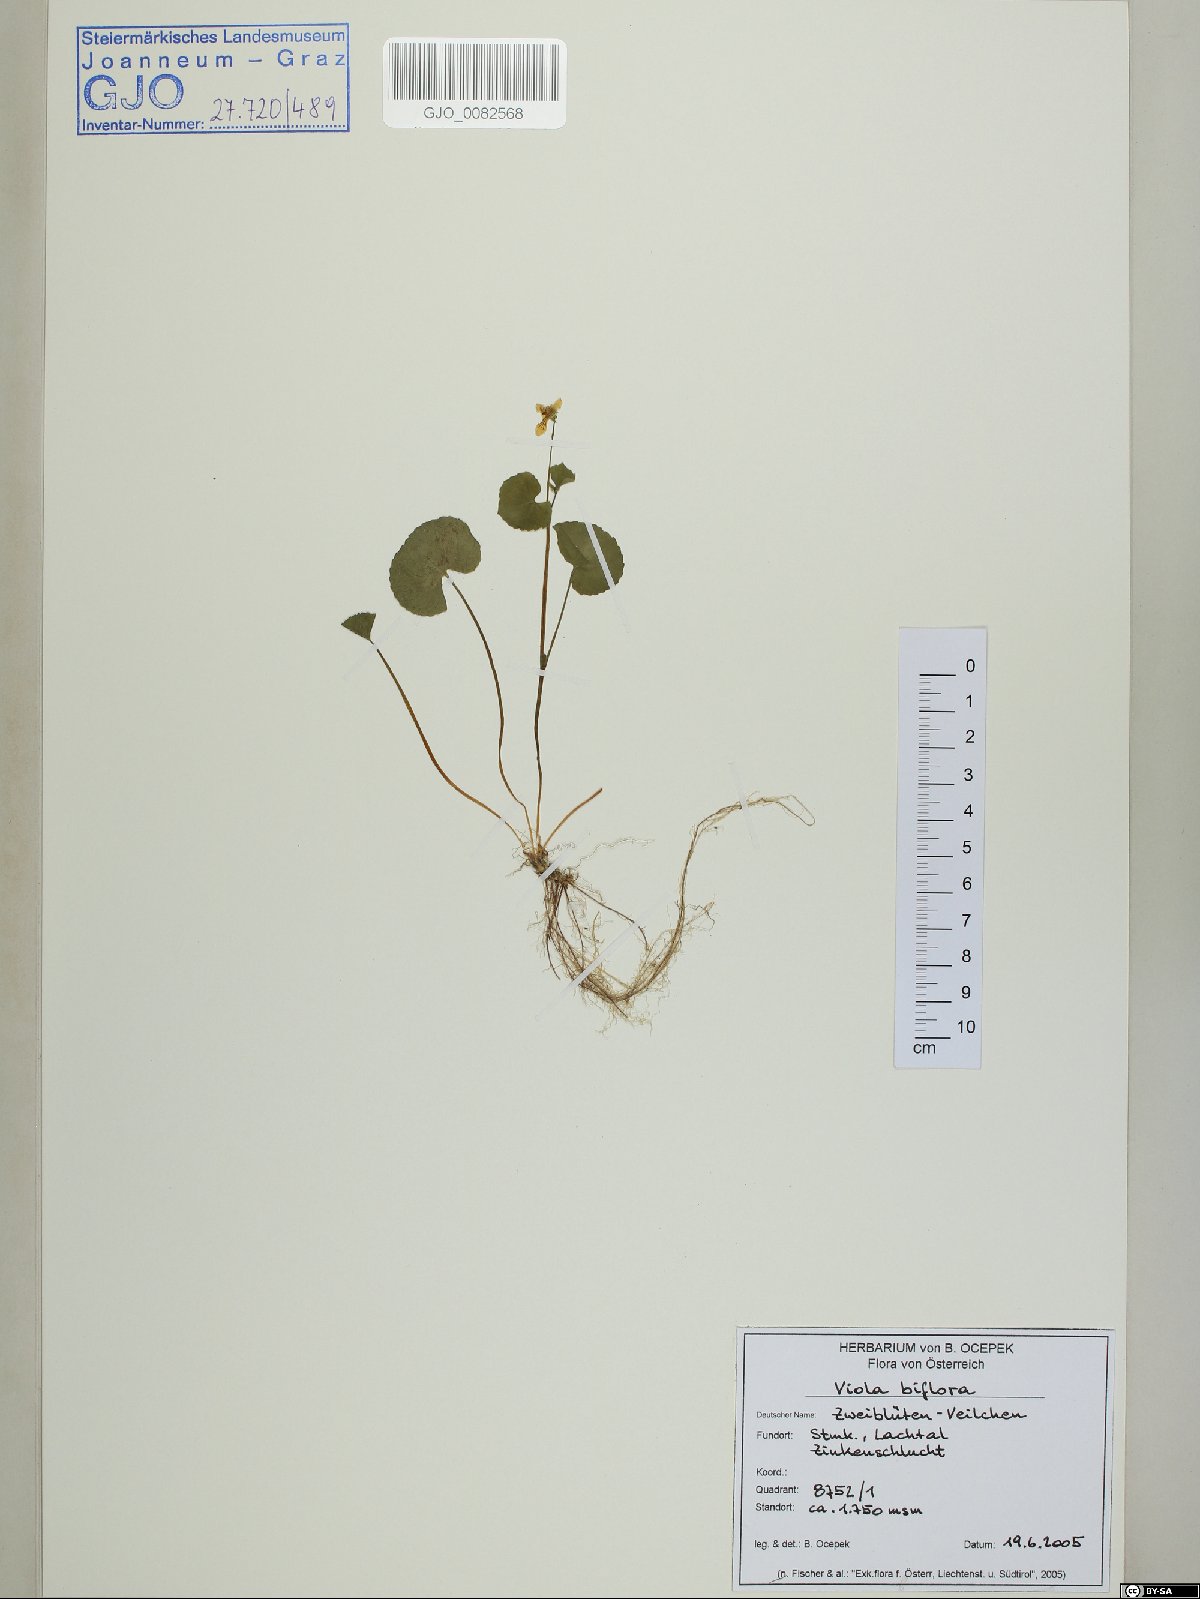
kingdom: Plantae
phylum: Tracheophyta
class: Magnoliopsida
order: Malpighiales
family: Violaceae
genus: Viola
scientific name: Viola biflora
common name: Alpine yellow violet
